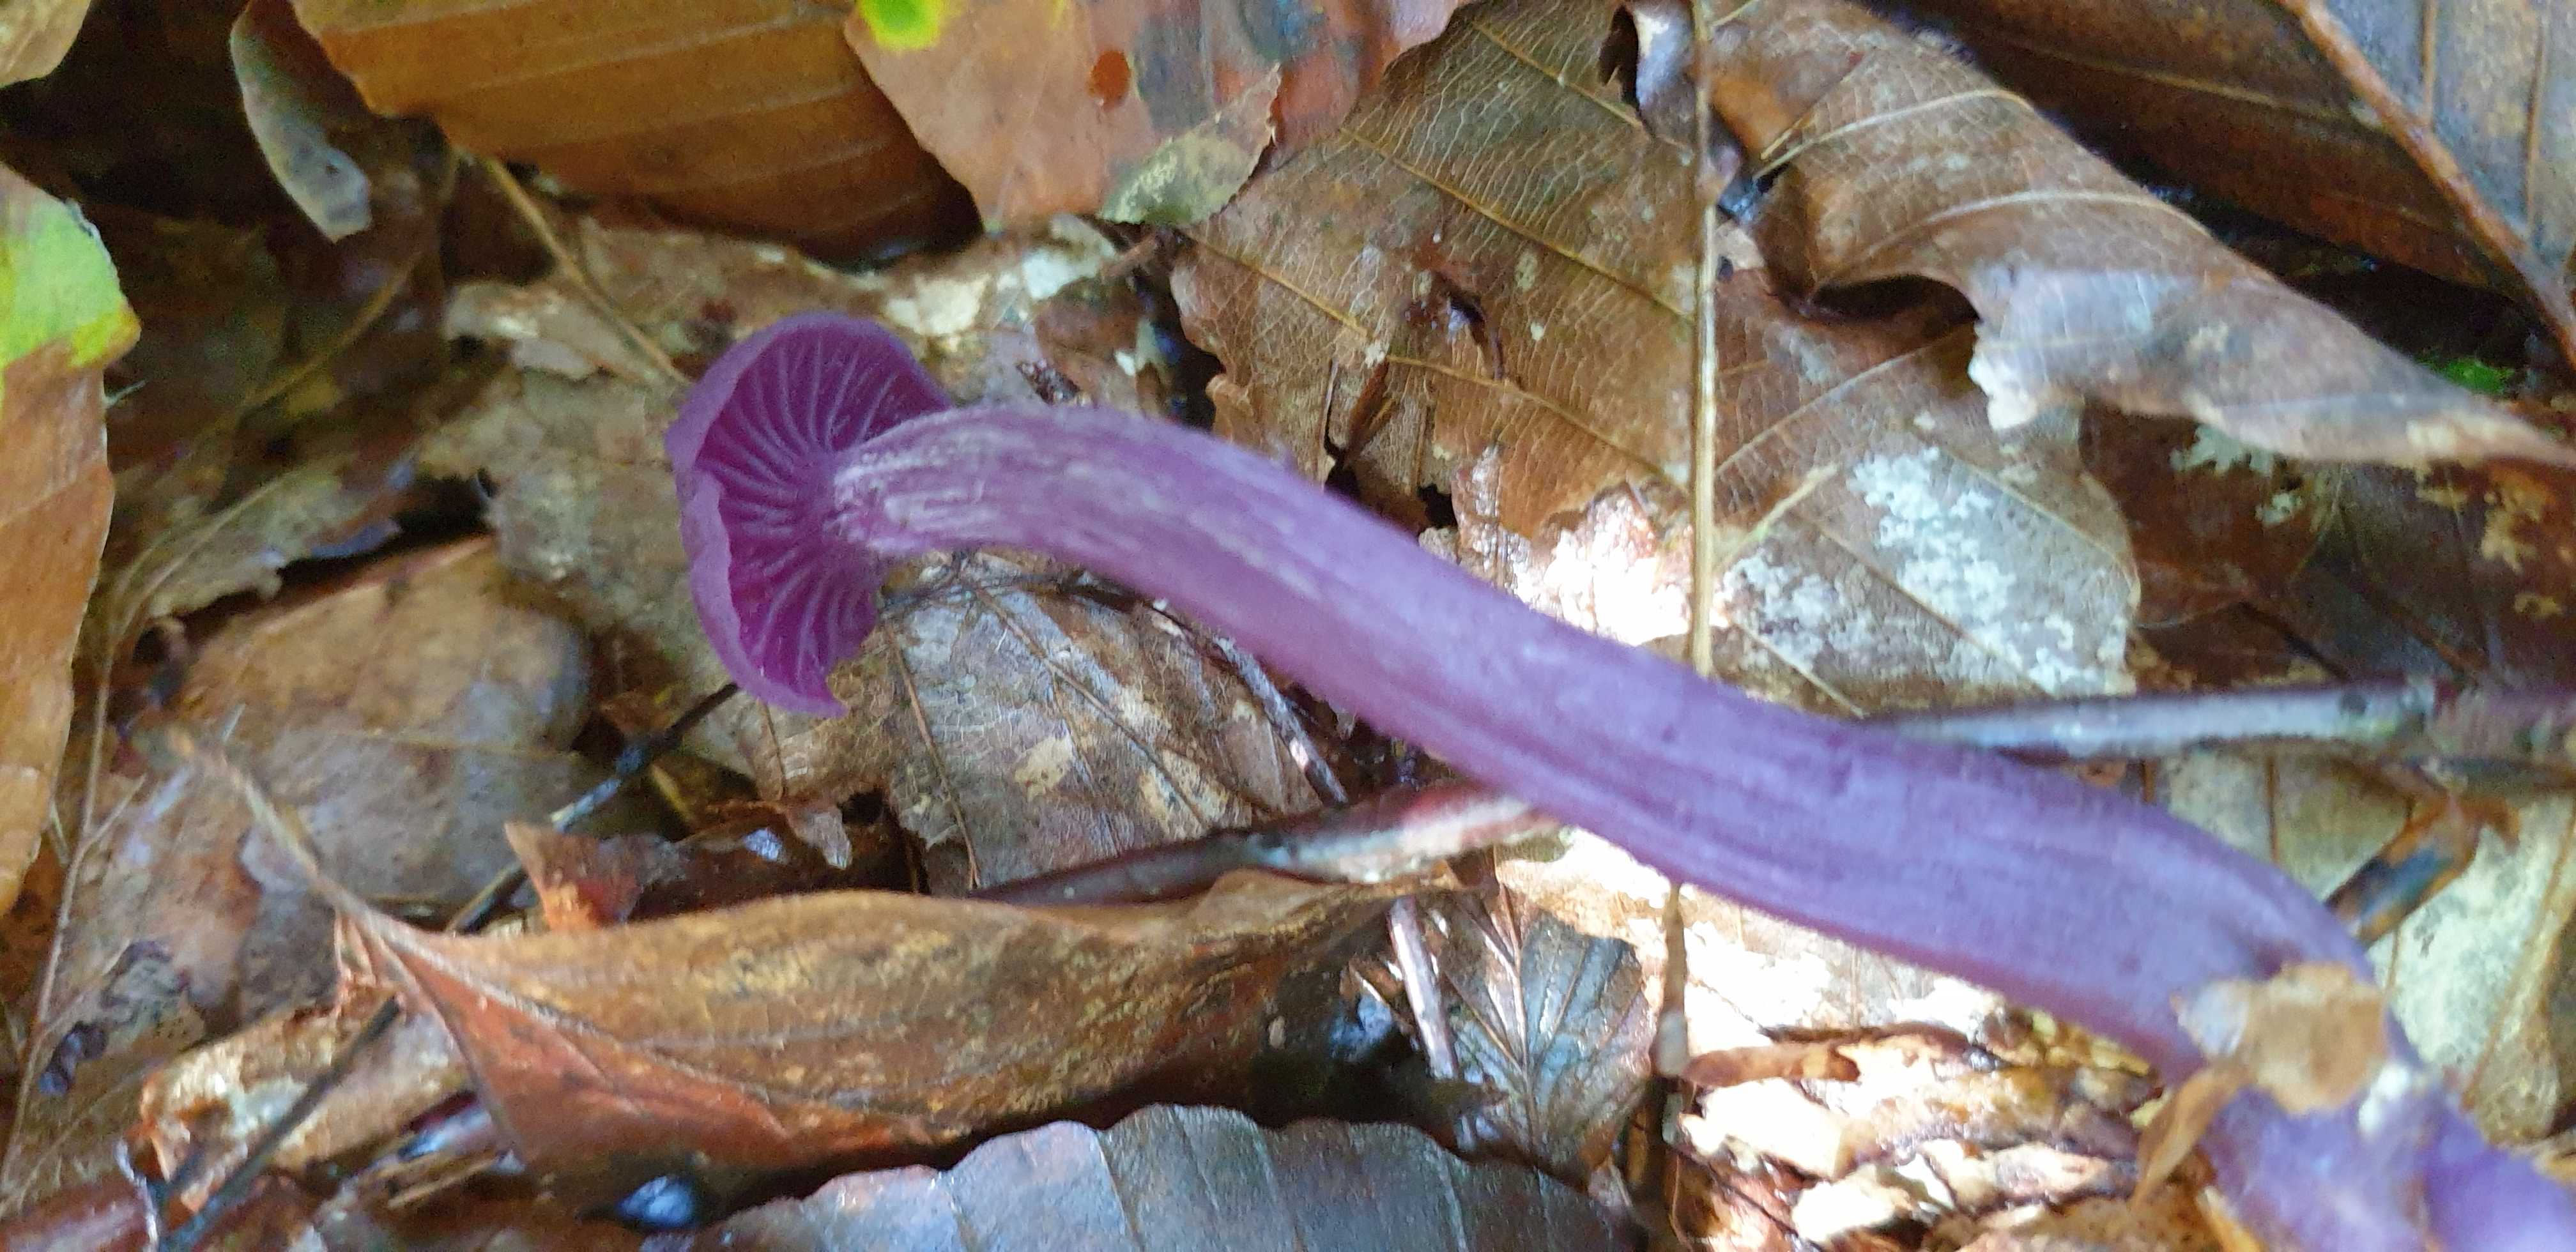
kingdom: Fungi
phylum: Basidiomycota
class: Agaricomycetes
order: Agaricales
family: Hydnangiaceae
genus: Laccaria
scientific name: Laccaria amethystina
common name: violet ametysthat
